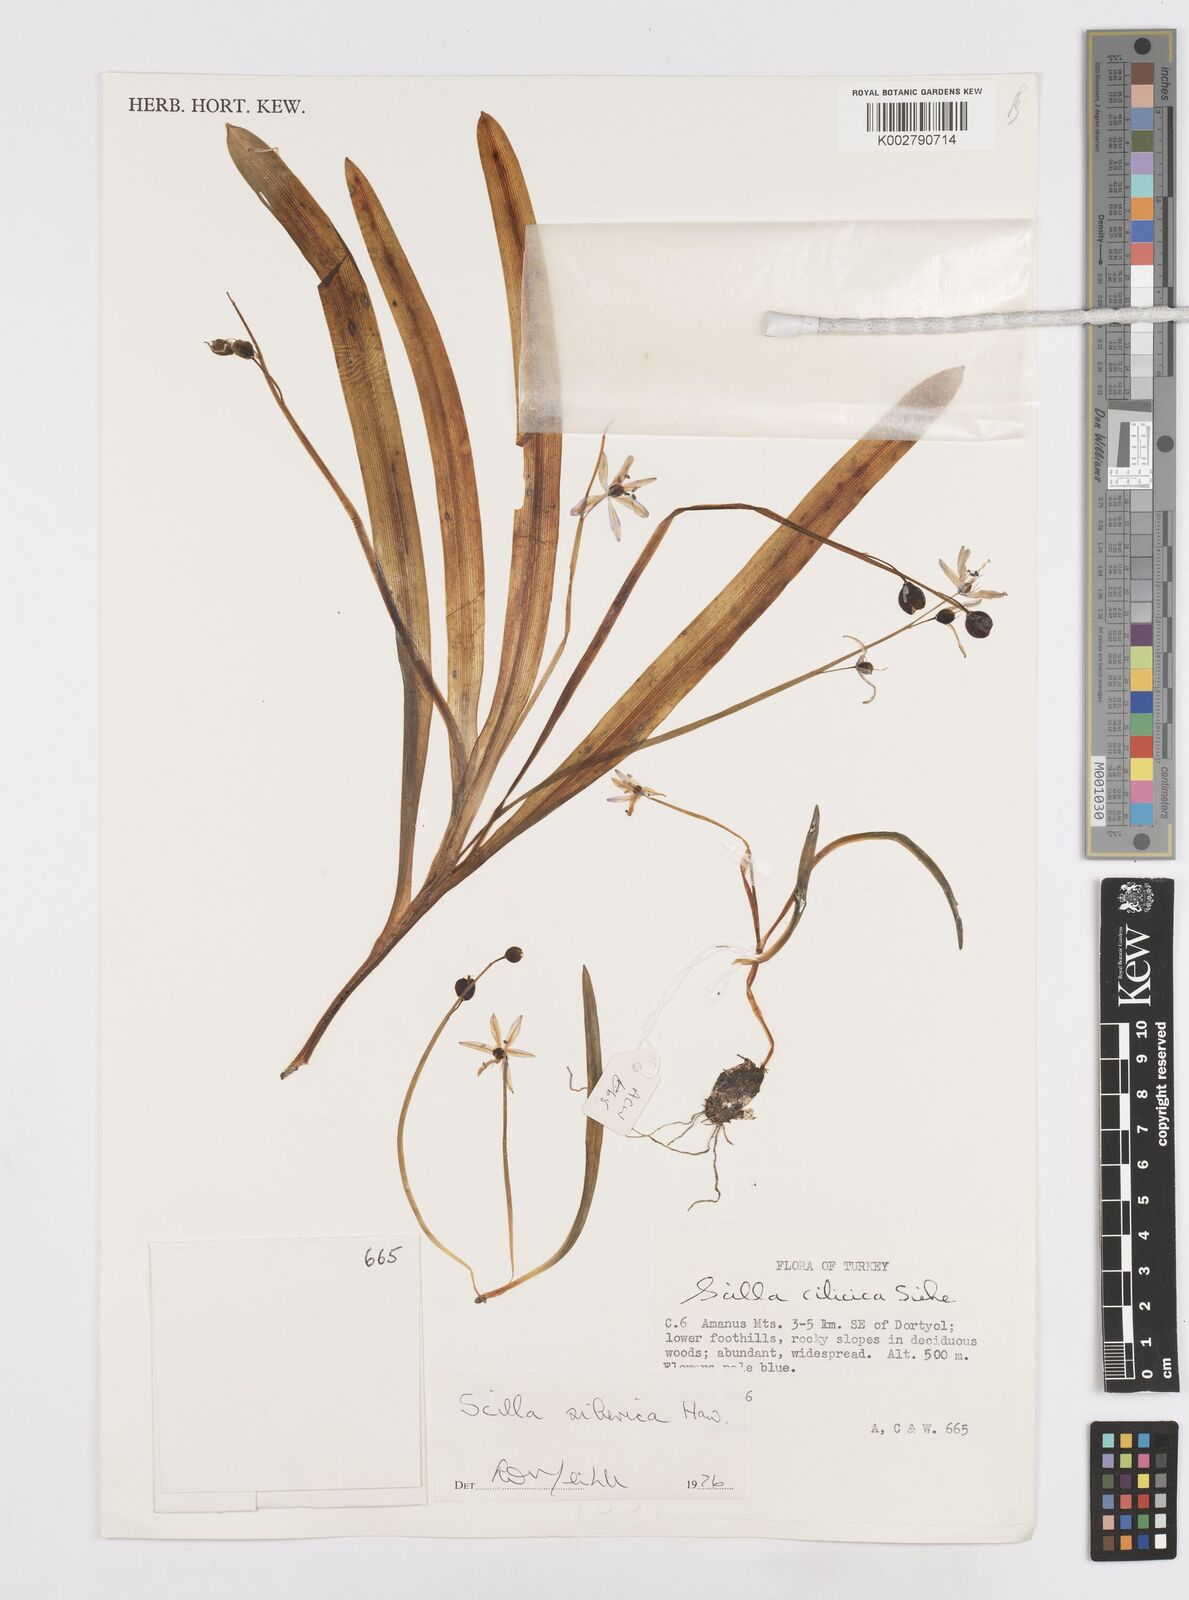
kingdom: Plantae
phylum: Tracheophyta
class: Liliopsida
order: Asparagales
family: Asparagaceae
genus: Scilla
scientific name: Scilla siberica
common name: Siberian squill
